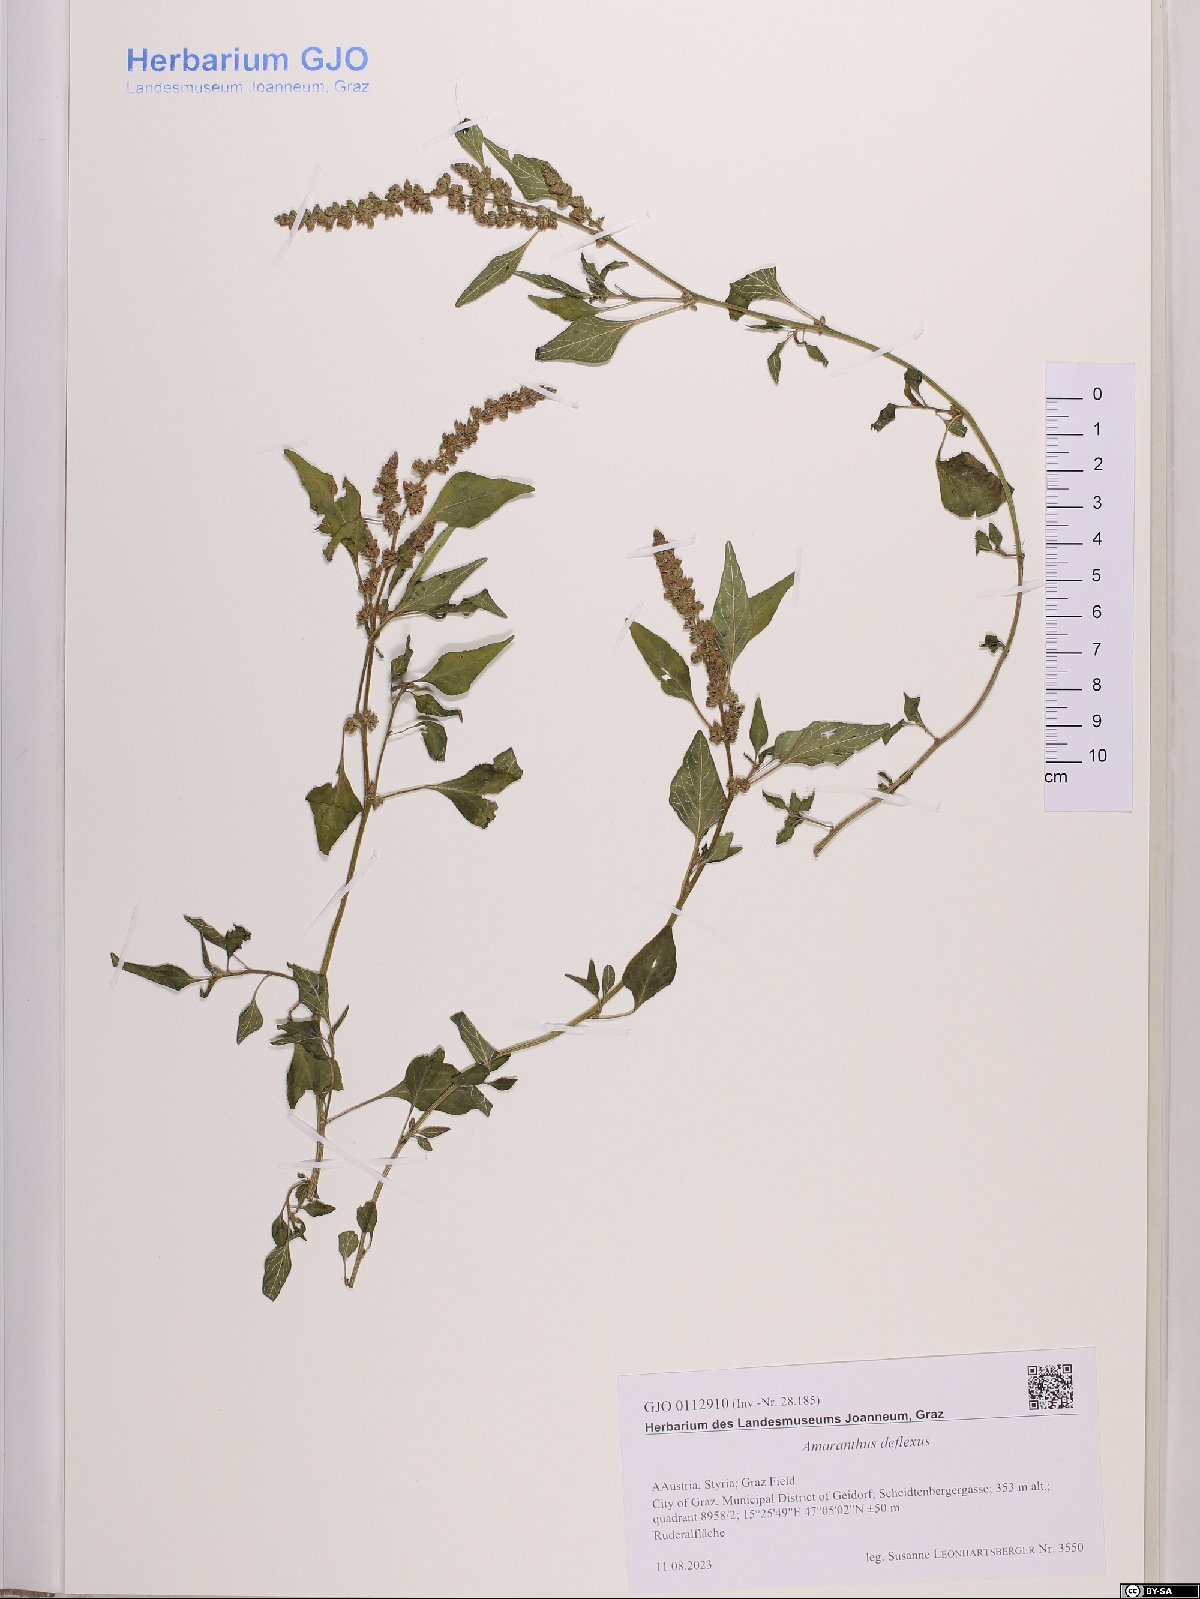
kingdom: Plantae
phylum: Tracheophyta
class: Magnoliopsida
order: Caryophyllales
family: Amaranthaceae
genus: Amaranthus
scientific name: Amaranthus deflexus
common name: Perennial pigweed
